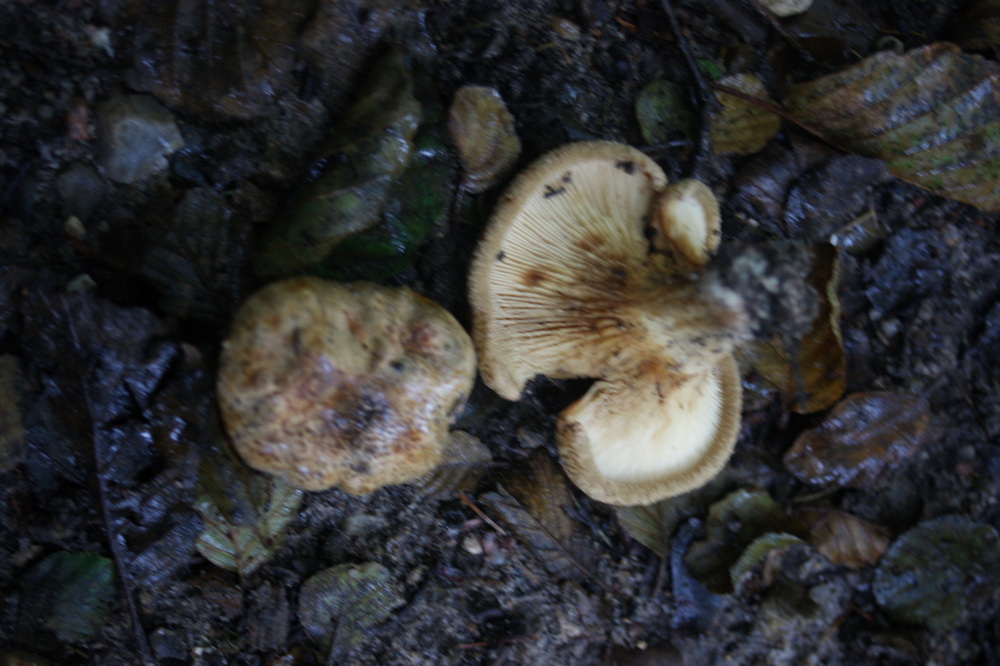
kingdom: Fungi
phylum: Basidiomycota
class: Agaricomycetes
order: Boletales
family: Paxillaceae
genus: Paxillus
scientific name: Paxillus rubicundulus
